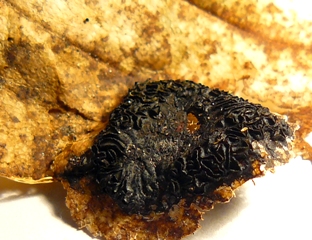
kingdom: Fungi
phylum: Ascomycota
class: Leotiomycetes
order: Rhytismatales
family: Rhytismataceae
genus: Rhytisma
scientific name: Rhytisma acerinum
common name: ahorn-rynkeplet
